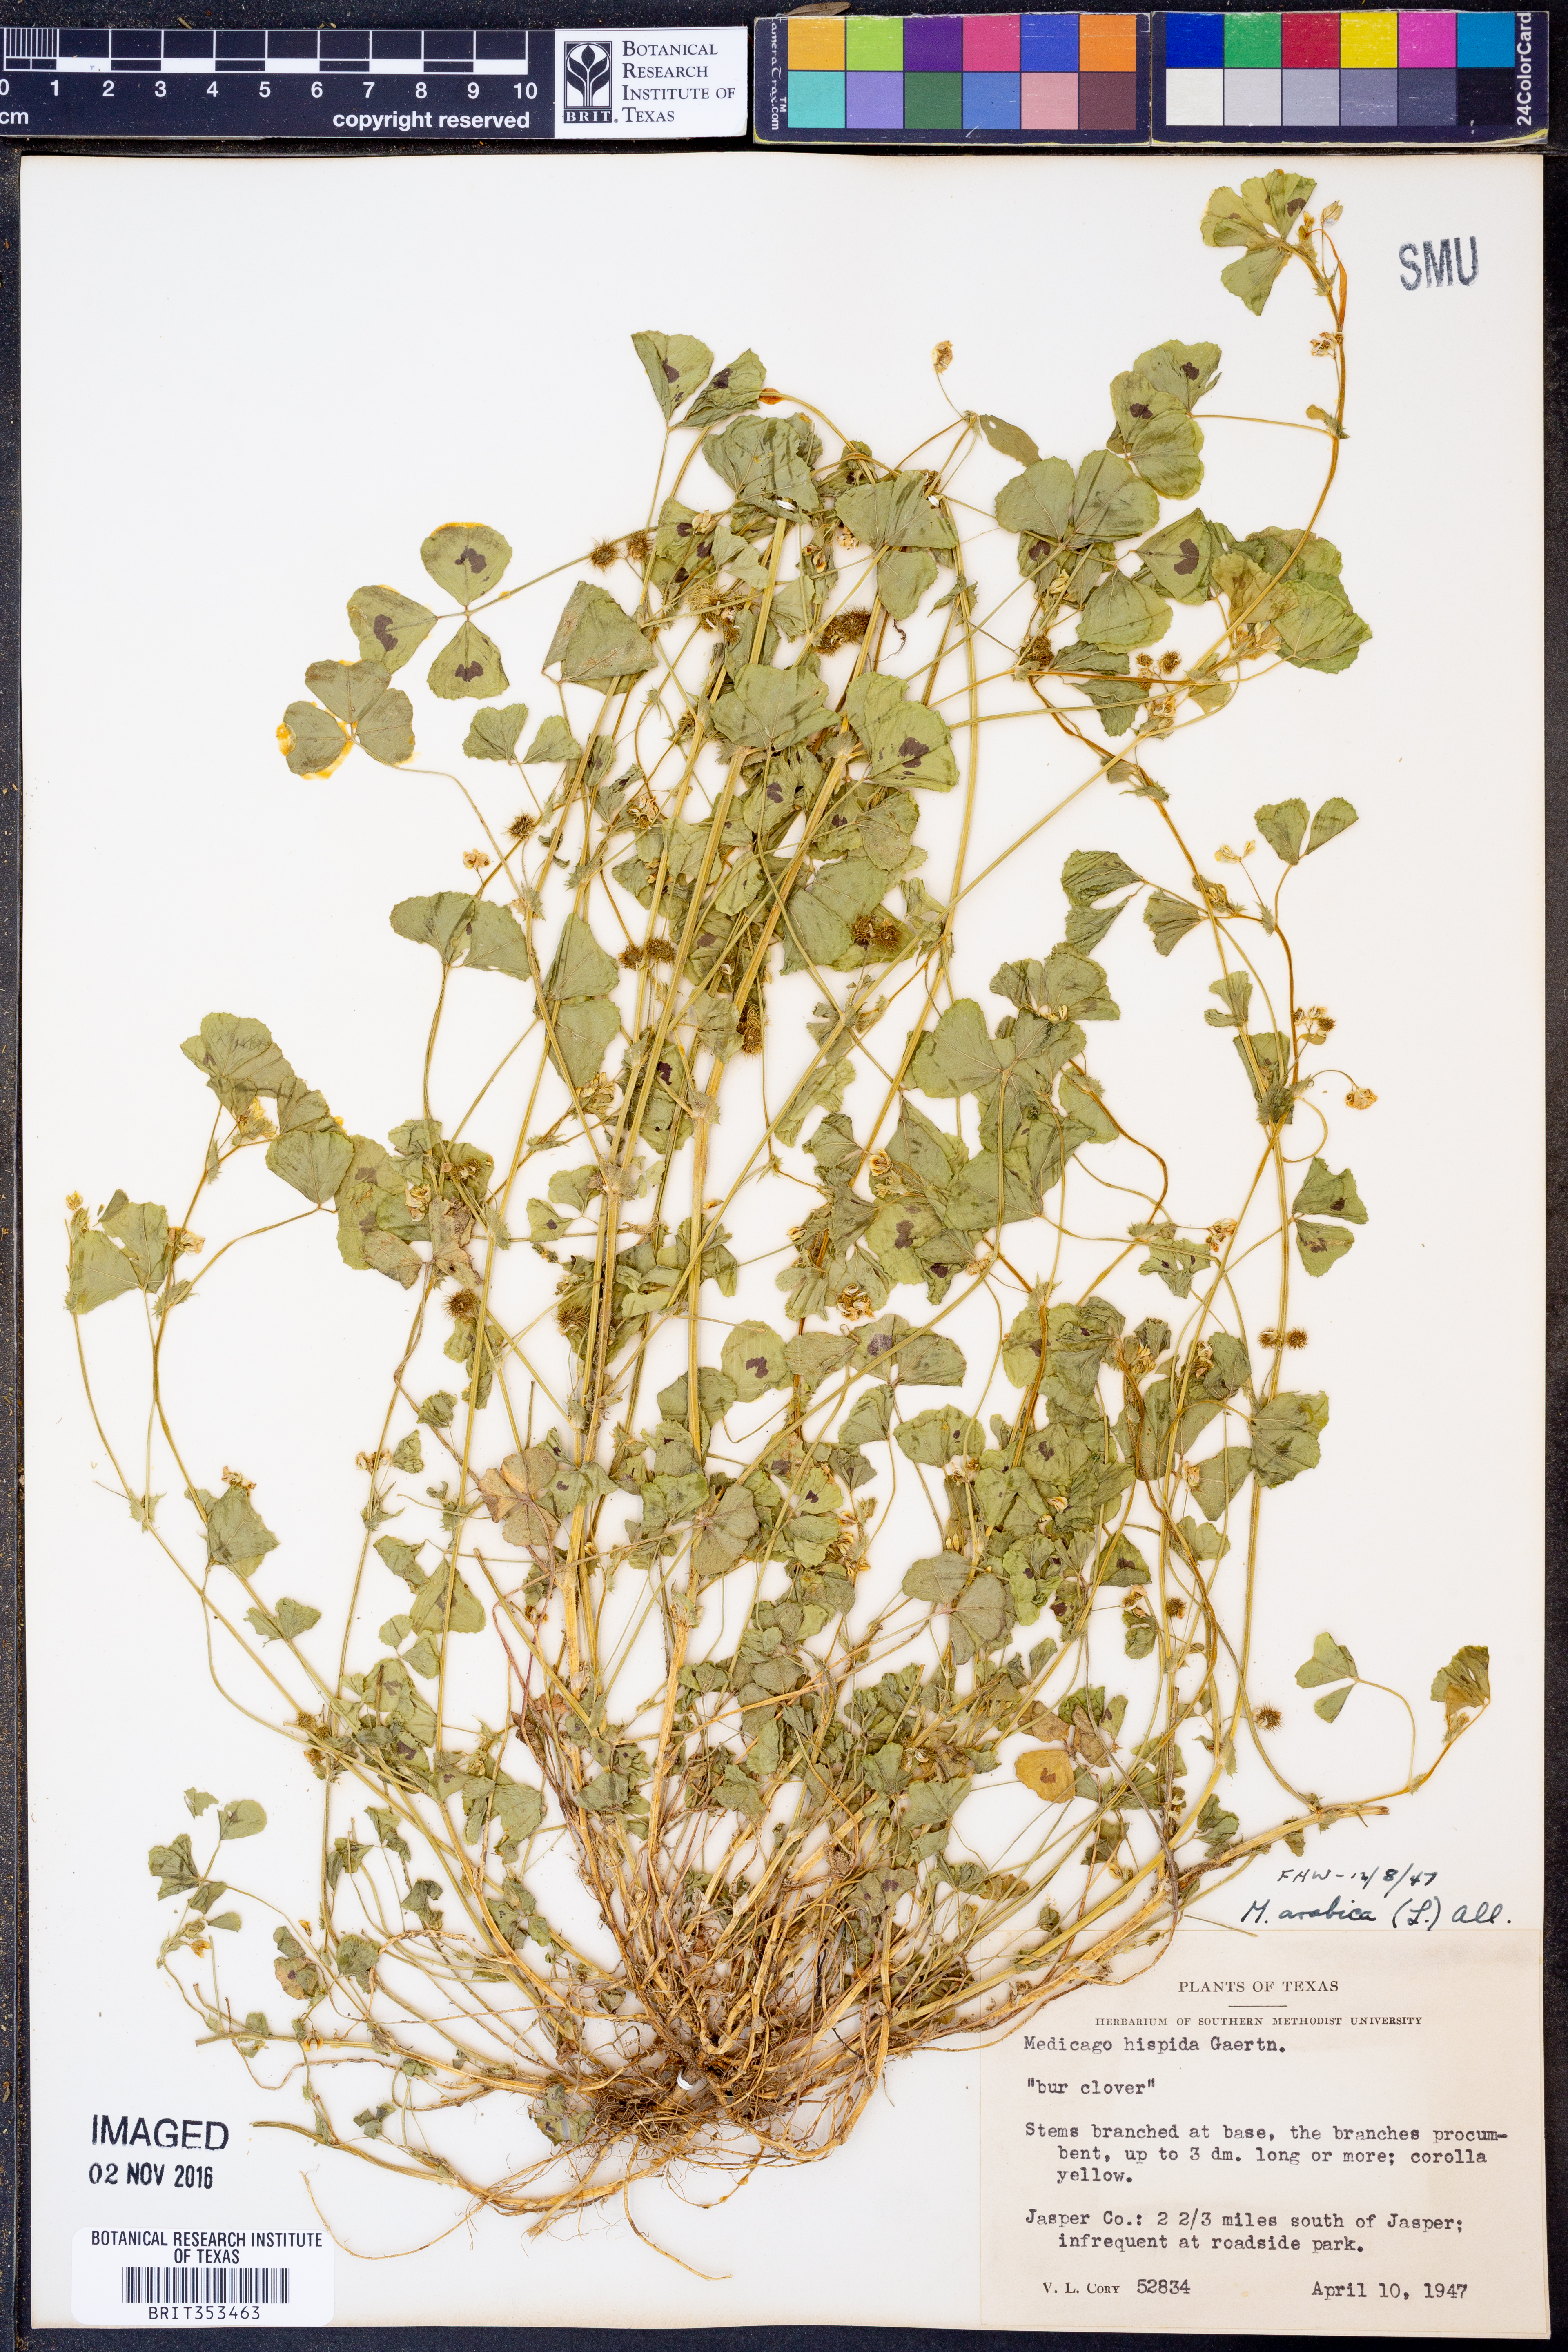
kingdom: Plantae
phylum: Tracheophyta
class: Magnoliopsida
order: Fabales
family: Fabaceae
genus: Medicago
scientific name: Medicago arabica
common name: Spotted medick
